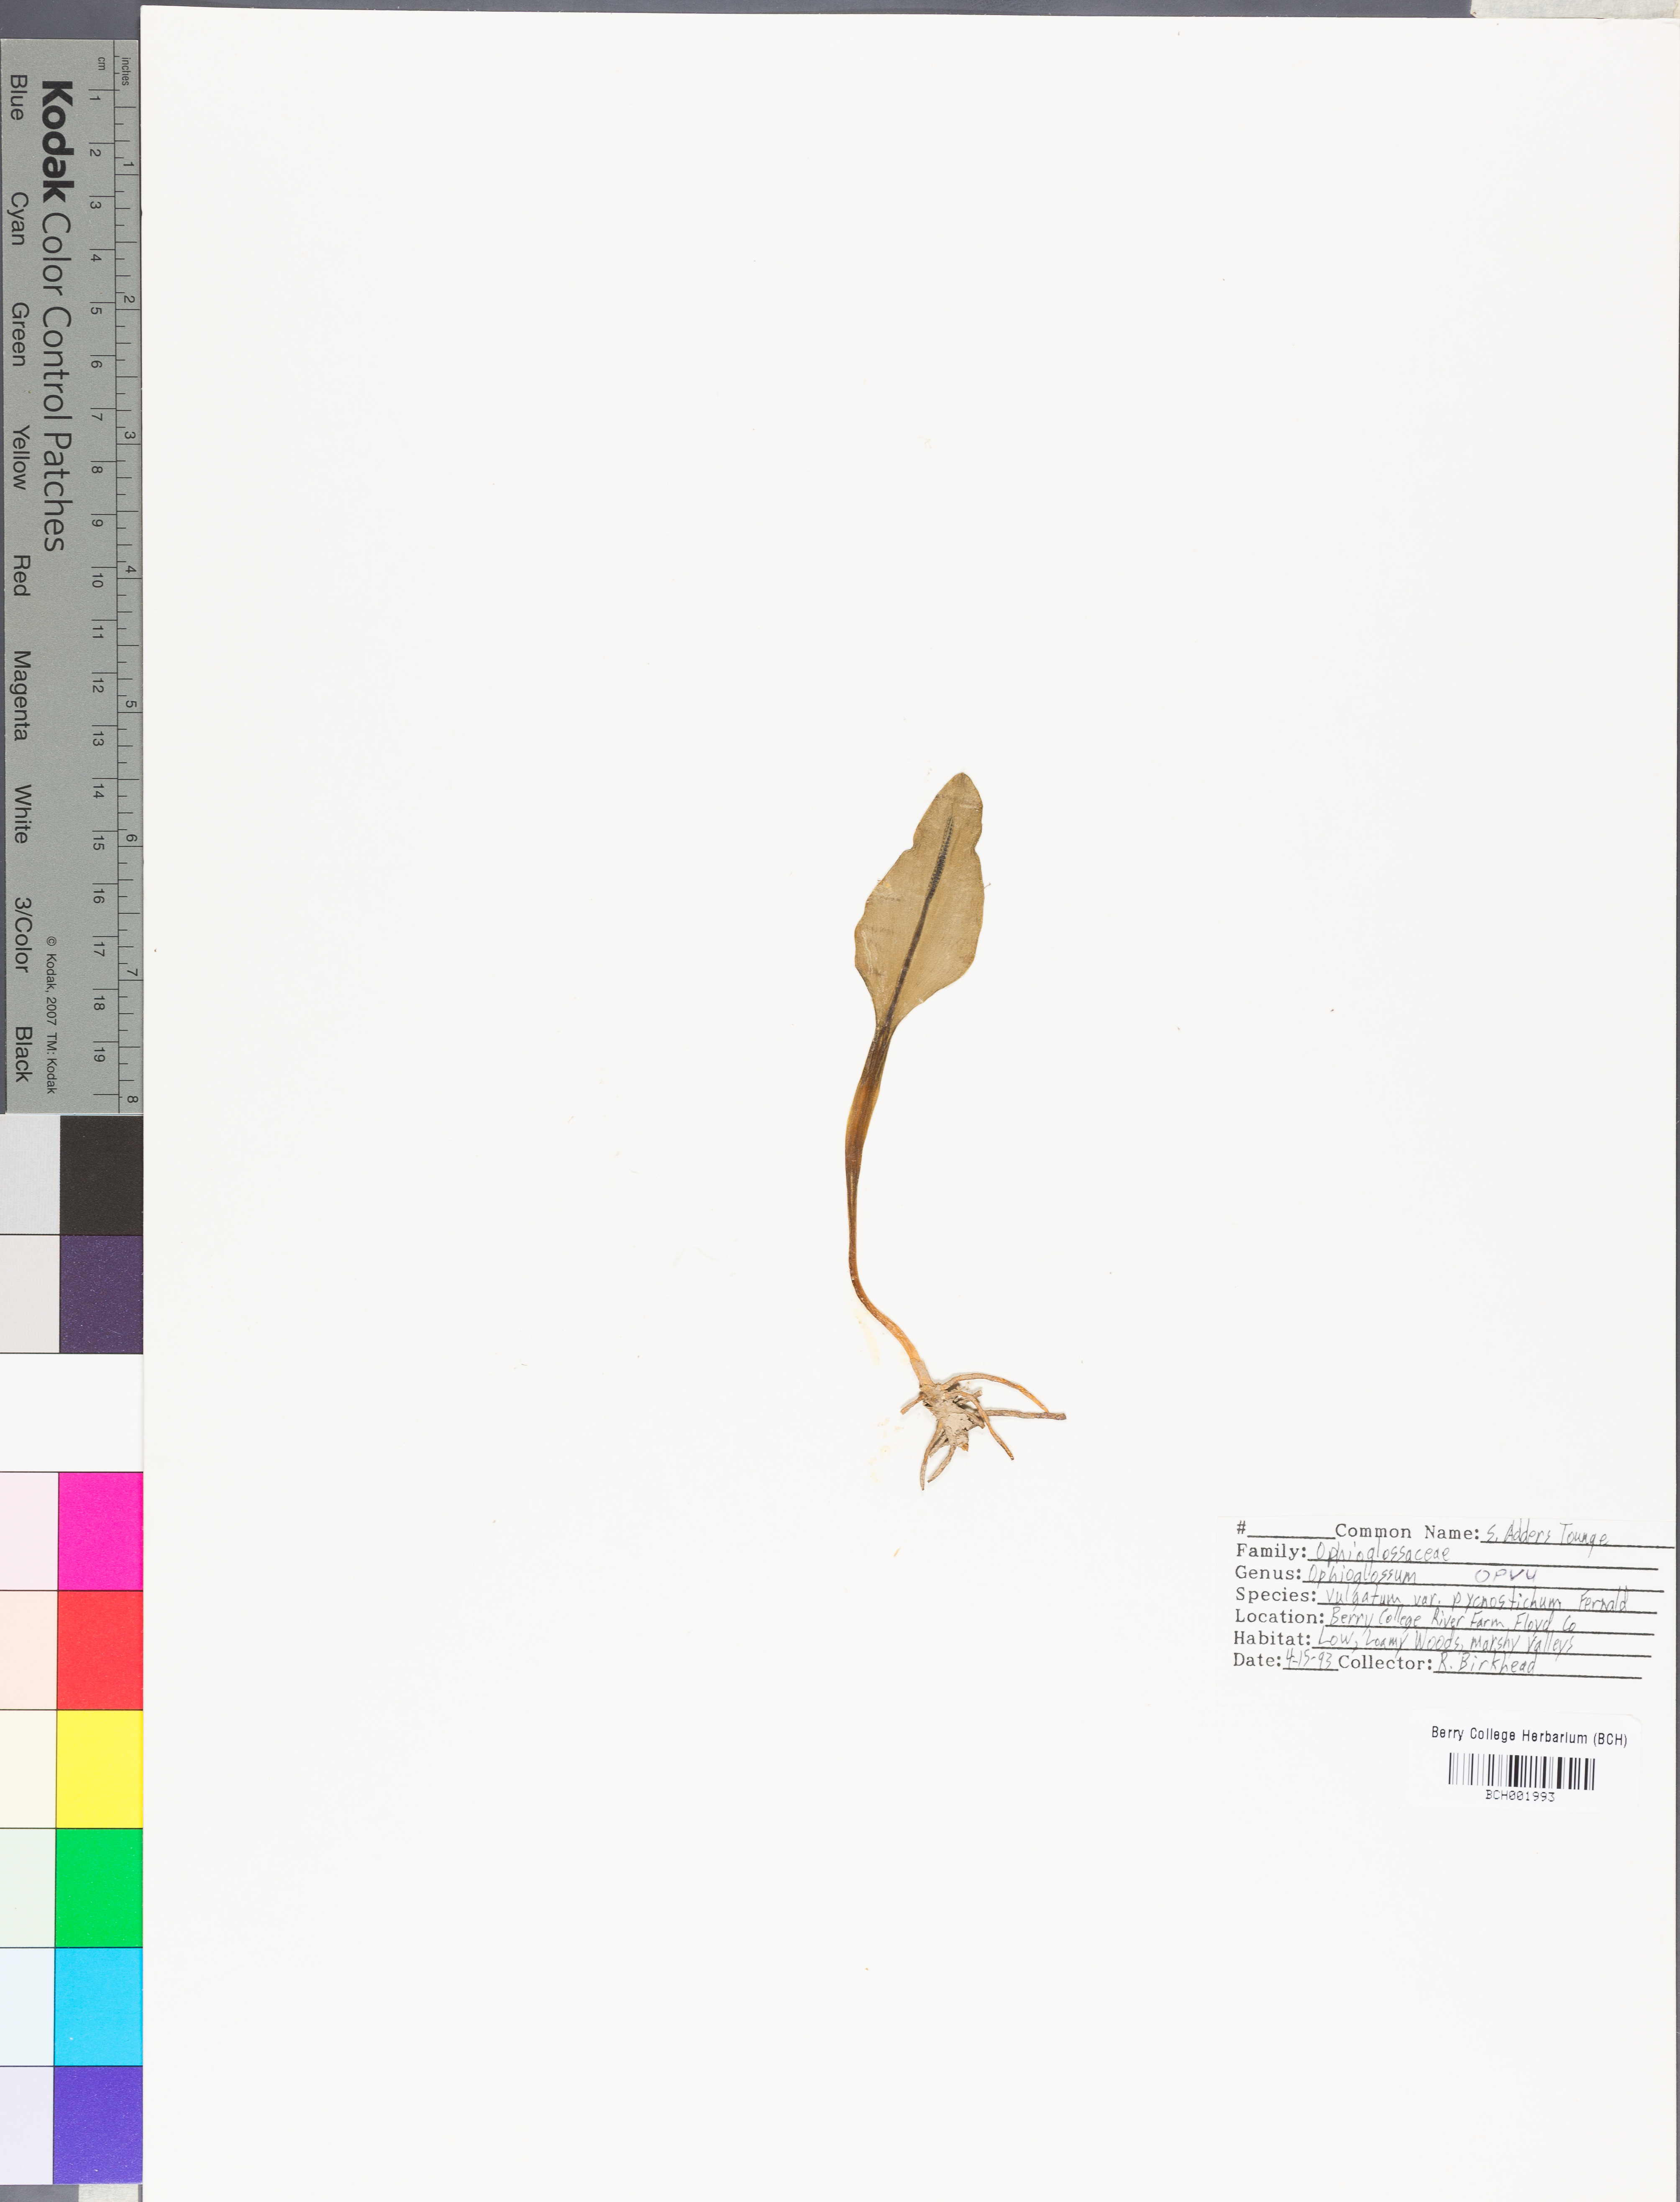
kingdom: Plantae
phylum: Tracheophyta
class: Polypodiopsida
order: Ophioglossales
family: Ophioglossaceae
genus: Ophioglossum
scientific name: Ophioglossum vulgatum
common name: Adder's-tongue
